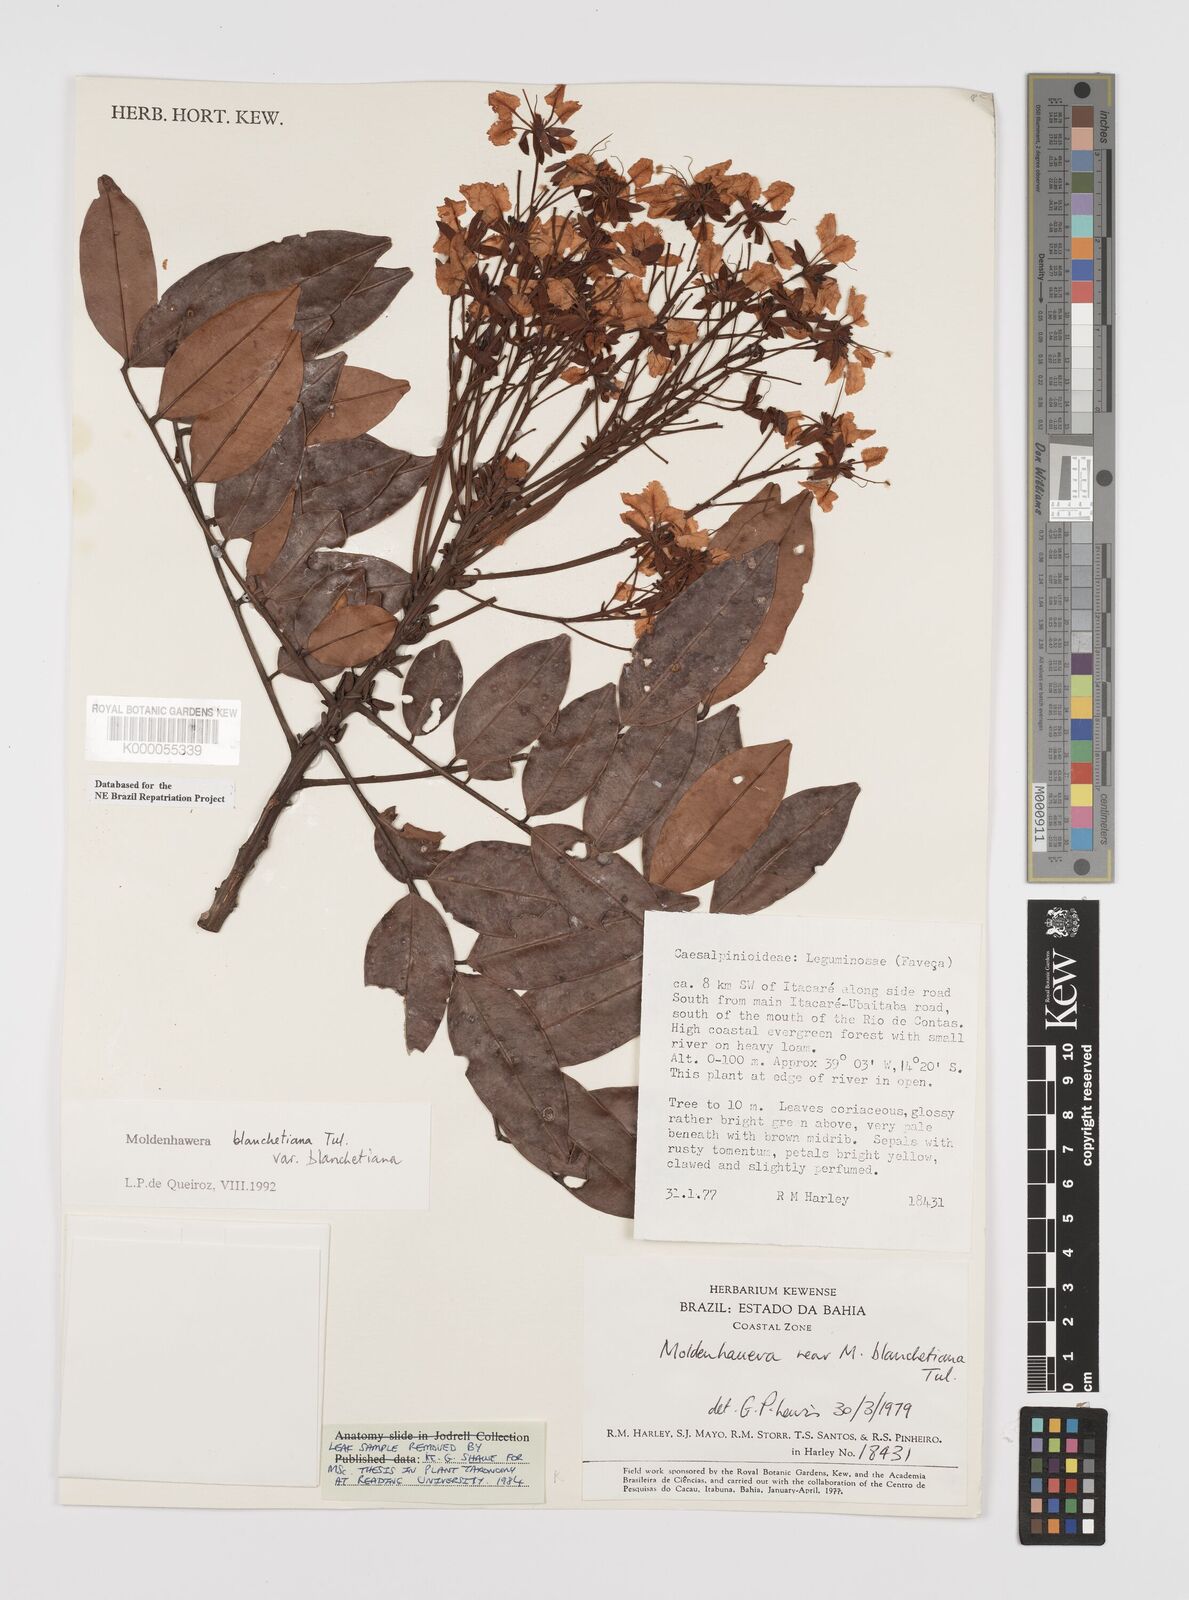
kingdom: Plantae
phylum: Tracheophyta
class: Magnoliopsida
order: Fabales
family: Fabaceae
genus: Moldenhawera
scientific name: Moldenhawera blanchetiana
